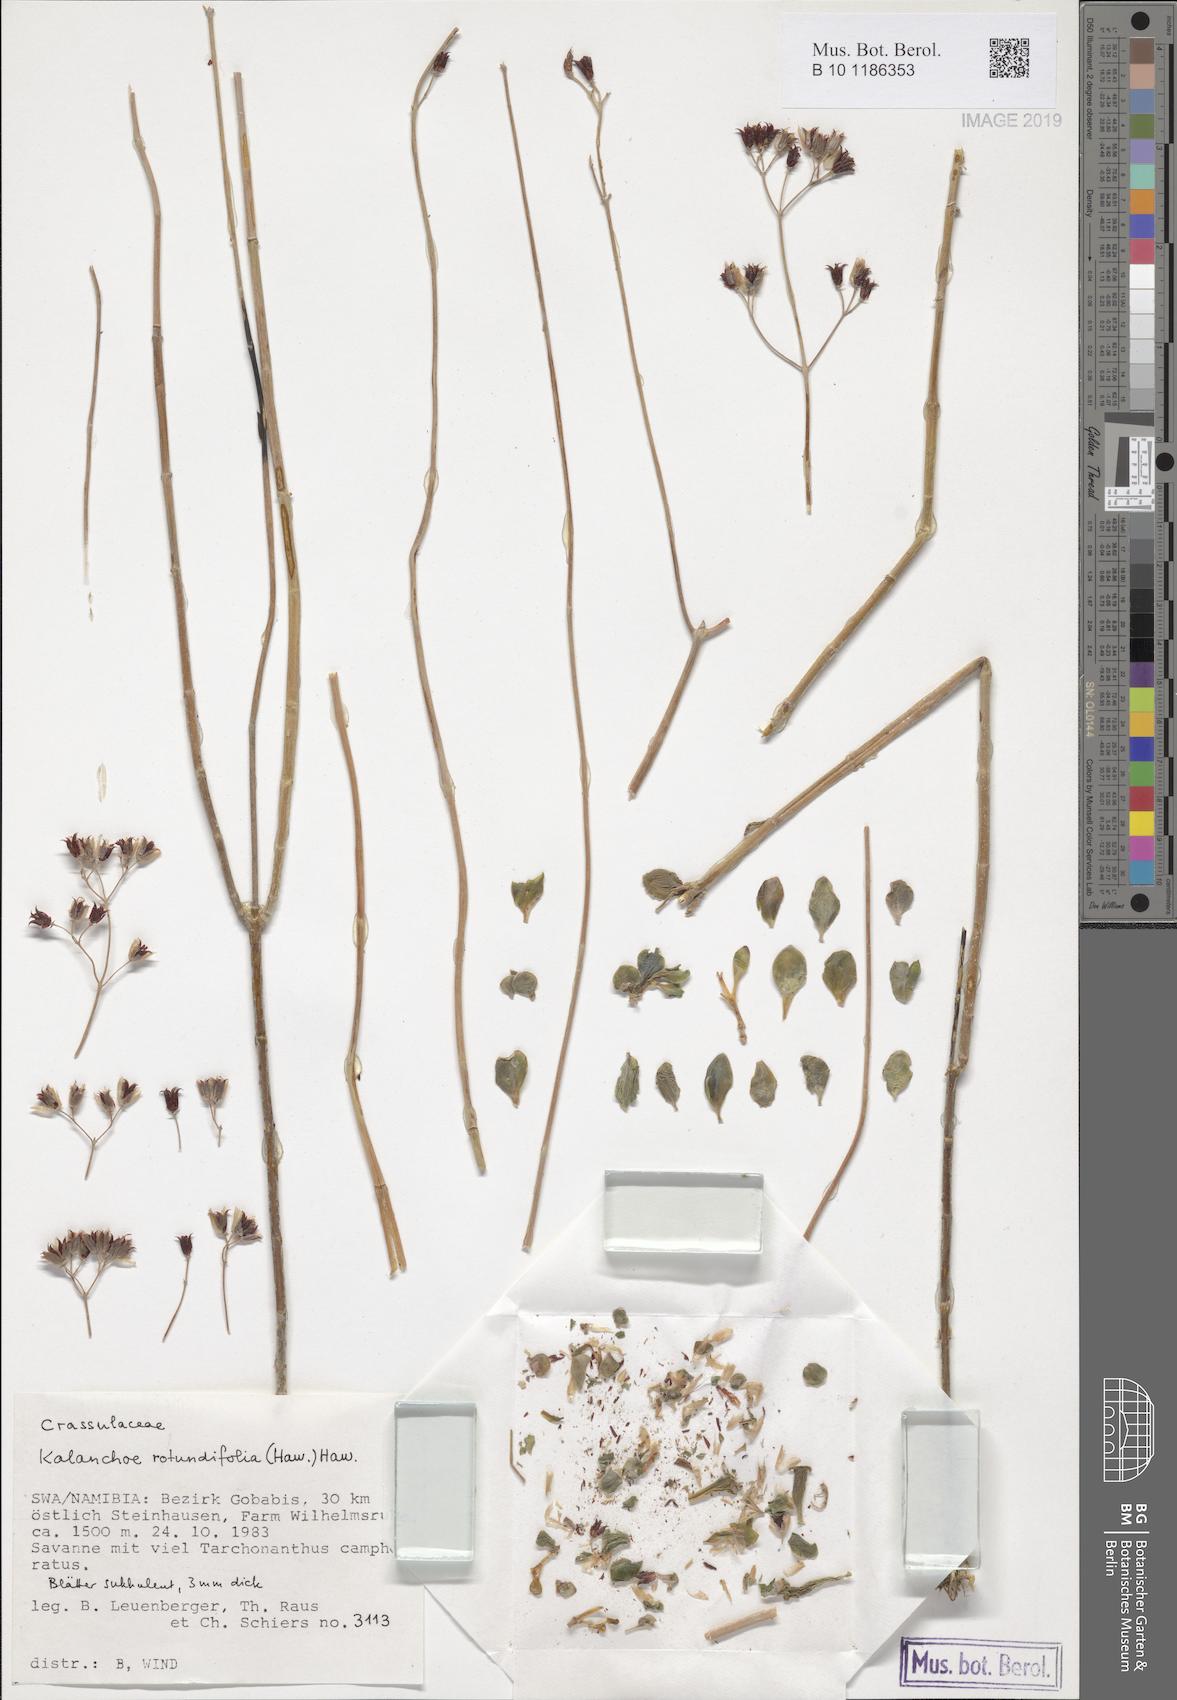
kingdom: Plantae
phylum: Tracheophyta
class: Magnoliopsida
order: Saxifragales
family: Crassulaceae
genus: Kalanchoe
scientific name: Kalanchoe rotundifolia
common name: Common kalanchoe
